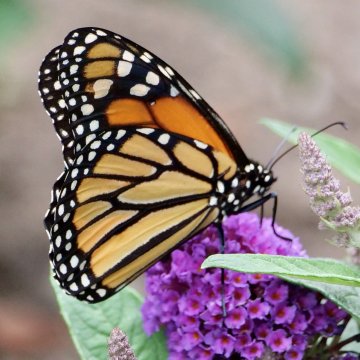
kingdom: Animalia
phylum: Arthropoda
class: Insecta
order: Lepidoptera
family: Nymphalidae
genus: Danaus
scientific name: Danaus plexippus
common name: Monarch
